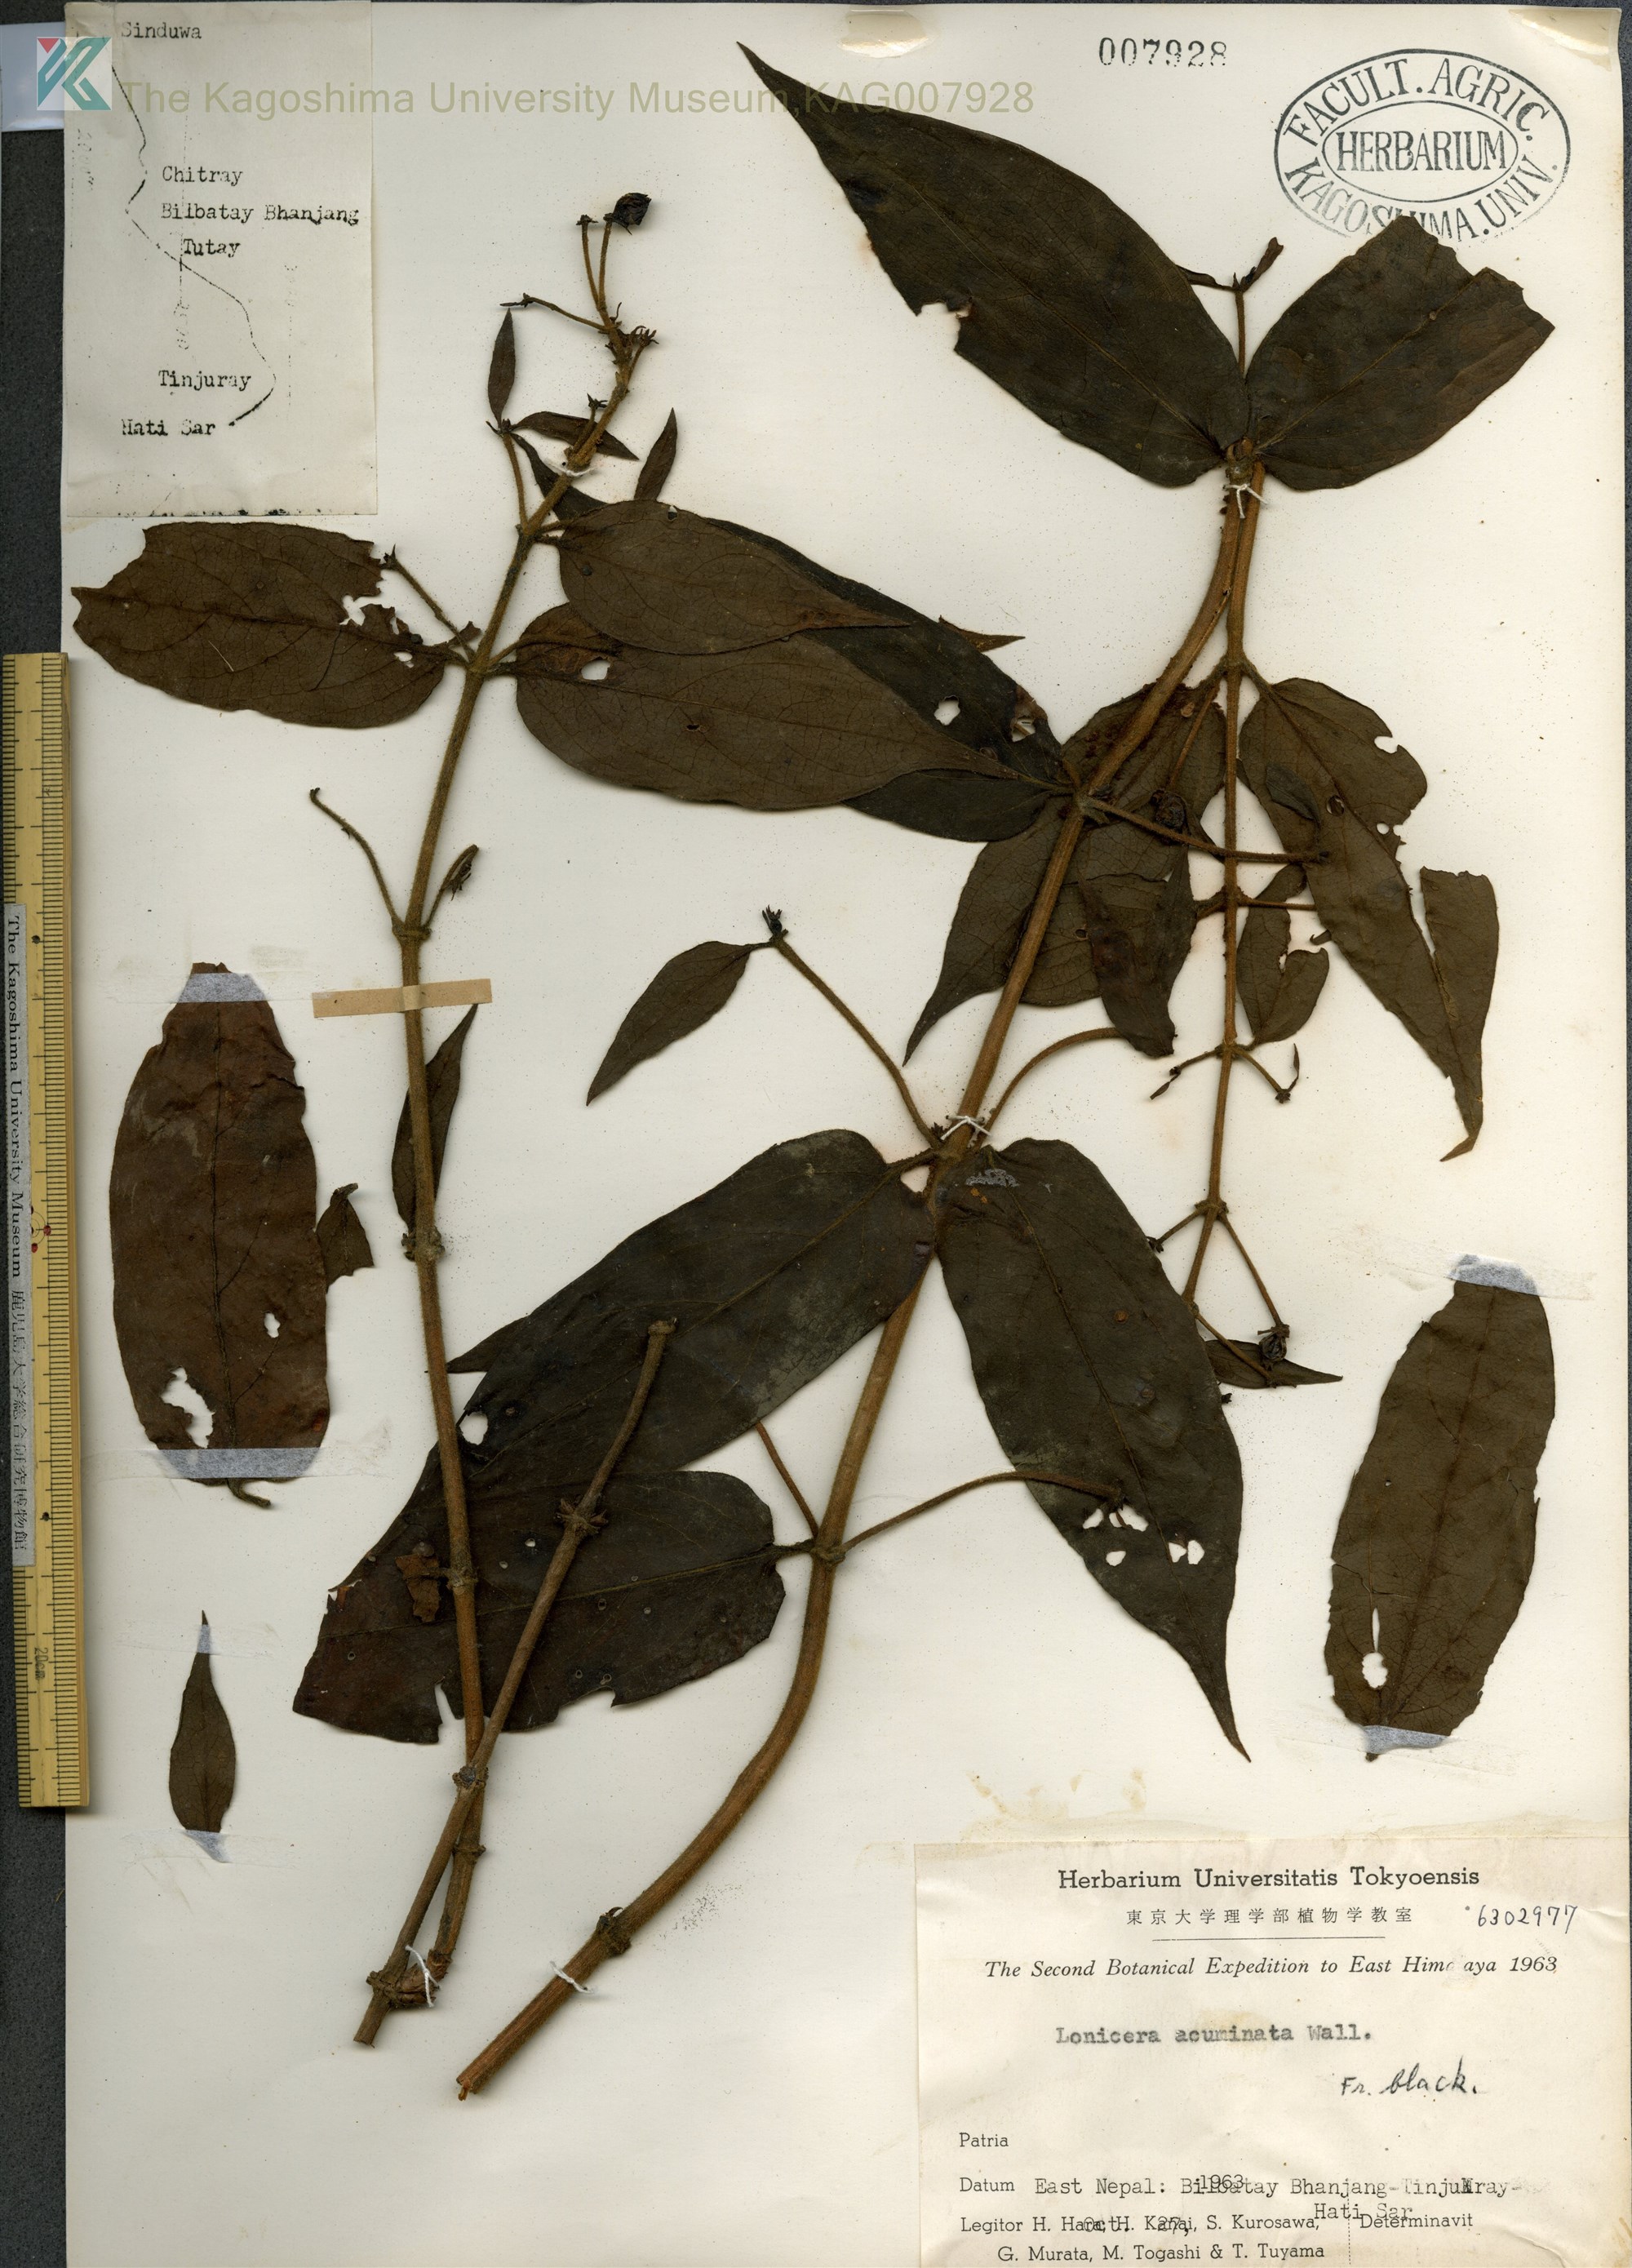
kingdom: Plantae
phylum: Tracheophyta
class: Magnoliopsida
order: Dipsacales
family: Caprifoliaceae
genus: Lonicera
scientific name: Lonicera acuminata
